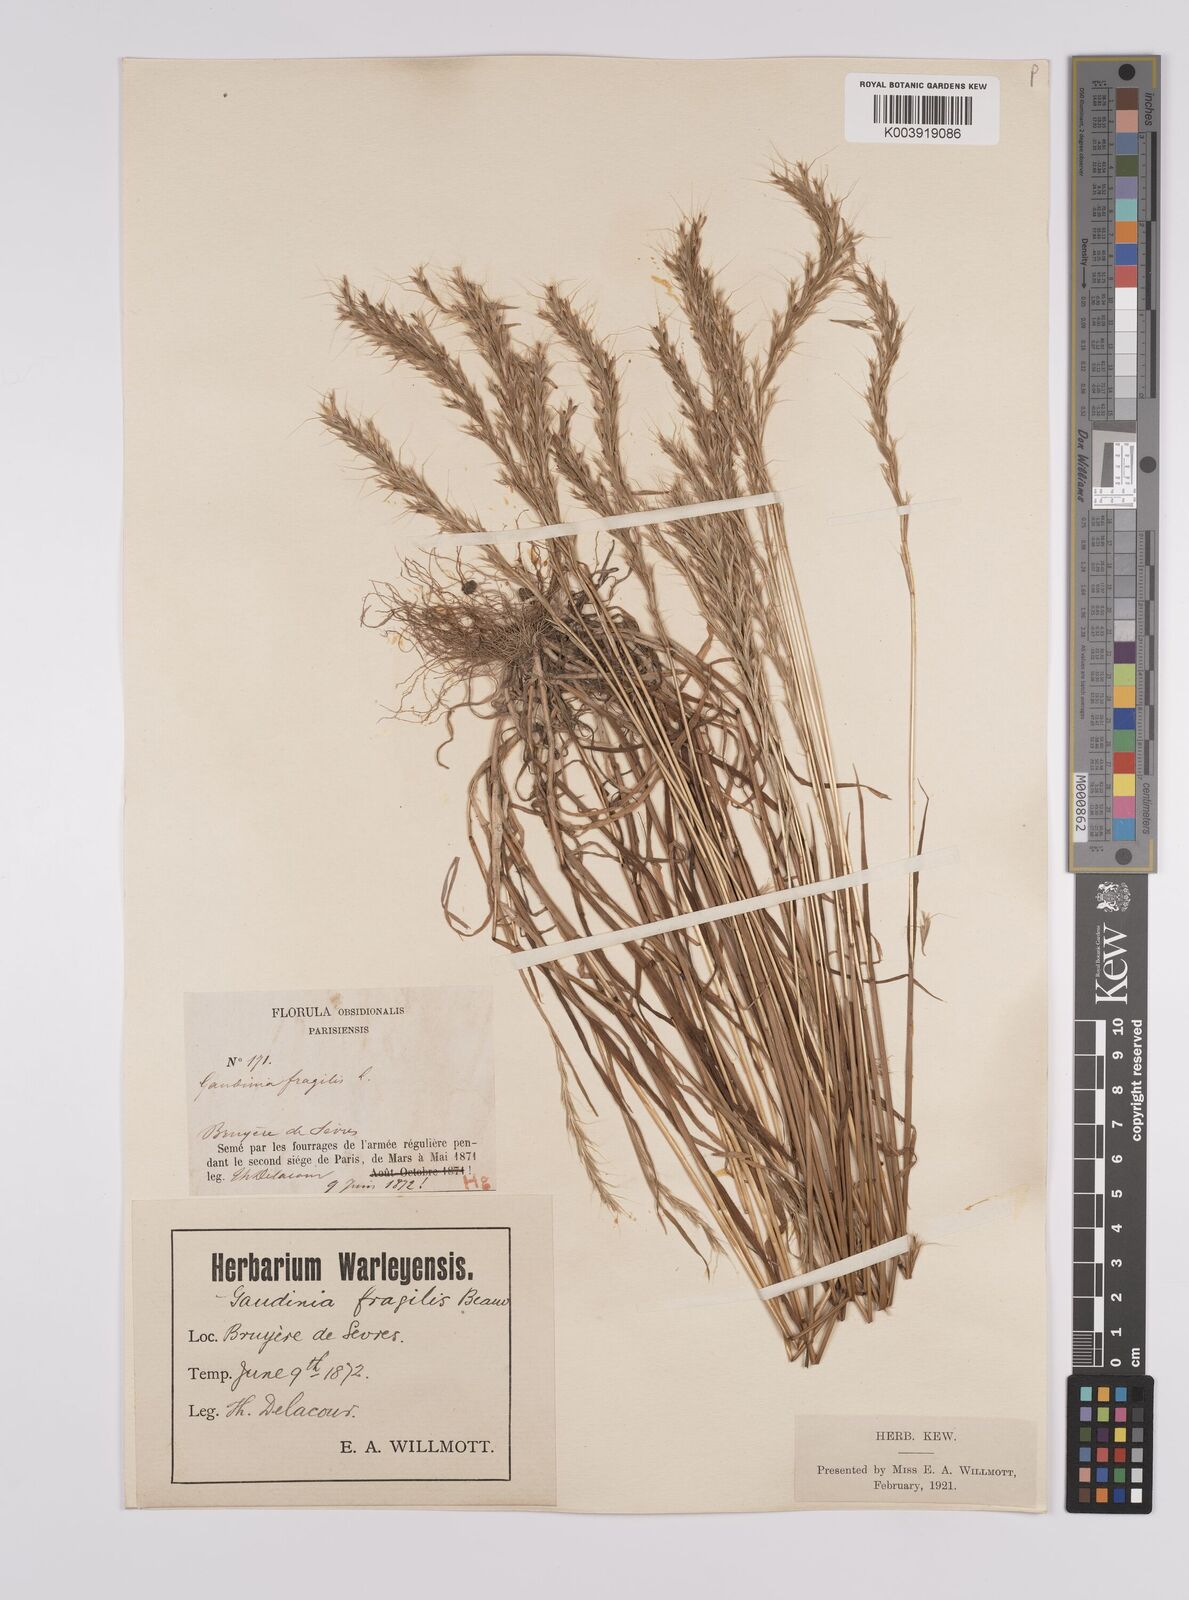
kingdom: Plantae
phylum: Tracheophyta
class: Liliopsida
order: Poales
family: Poaceae
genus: Gaudinia
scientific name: Gaudinia fragilis
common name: French oat-grass
